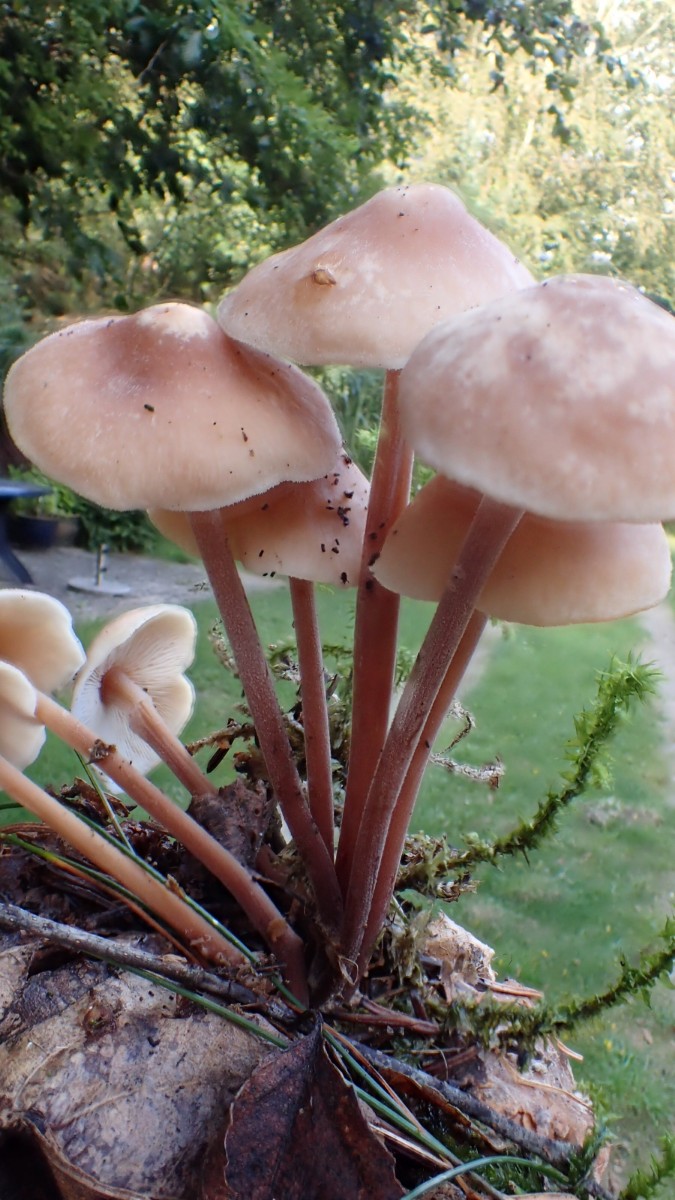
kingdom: Fungi
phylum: Basidiomycota
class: Agaricomycetes
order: Agaricales
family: Omphalotaceae
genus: Collybiopsis
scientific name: Collybiopsis confluens
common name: knippe-fladhat
